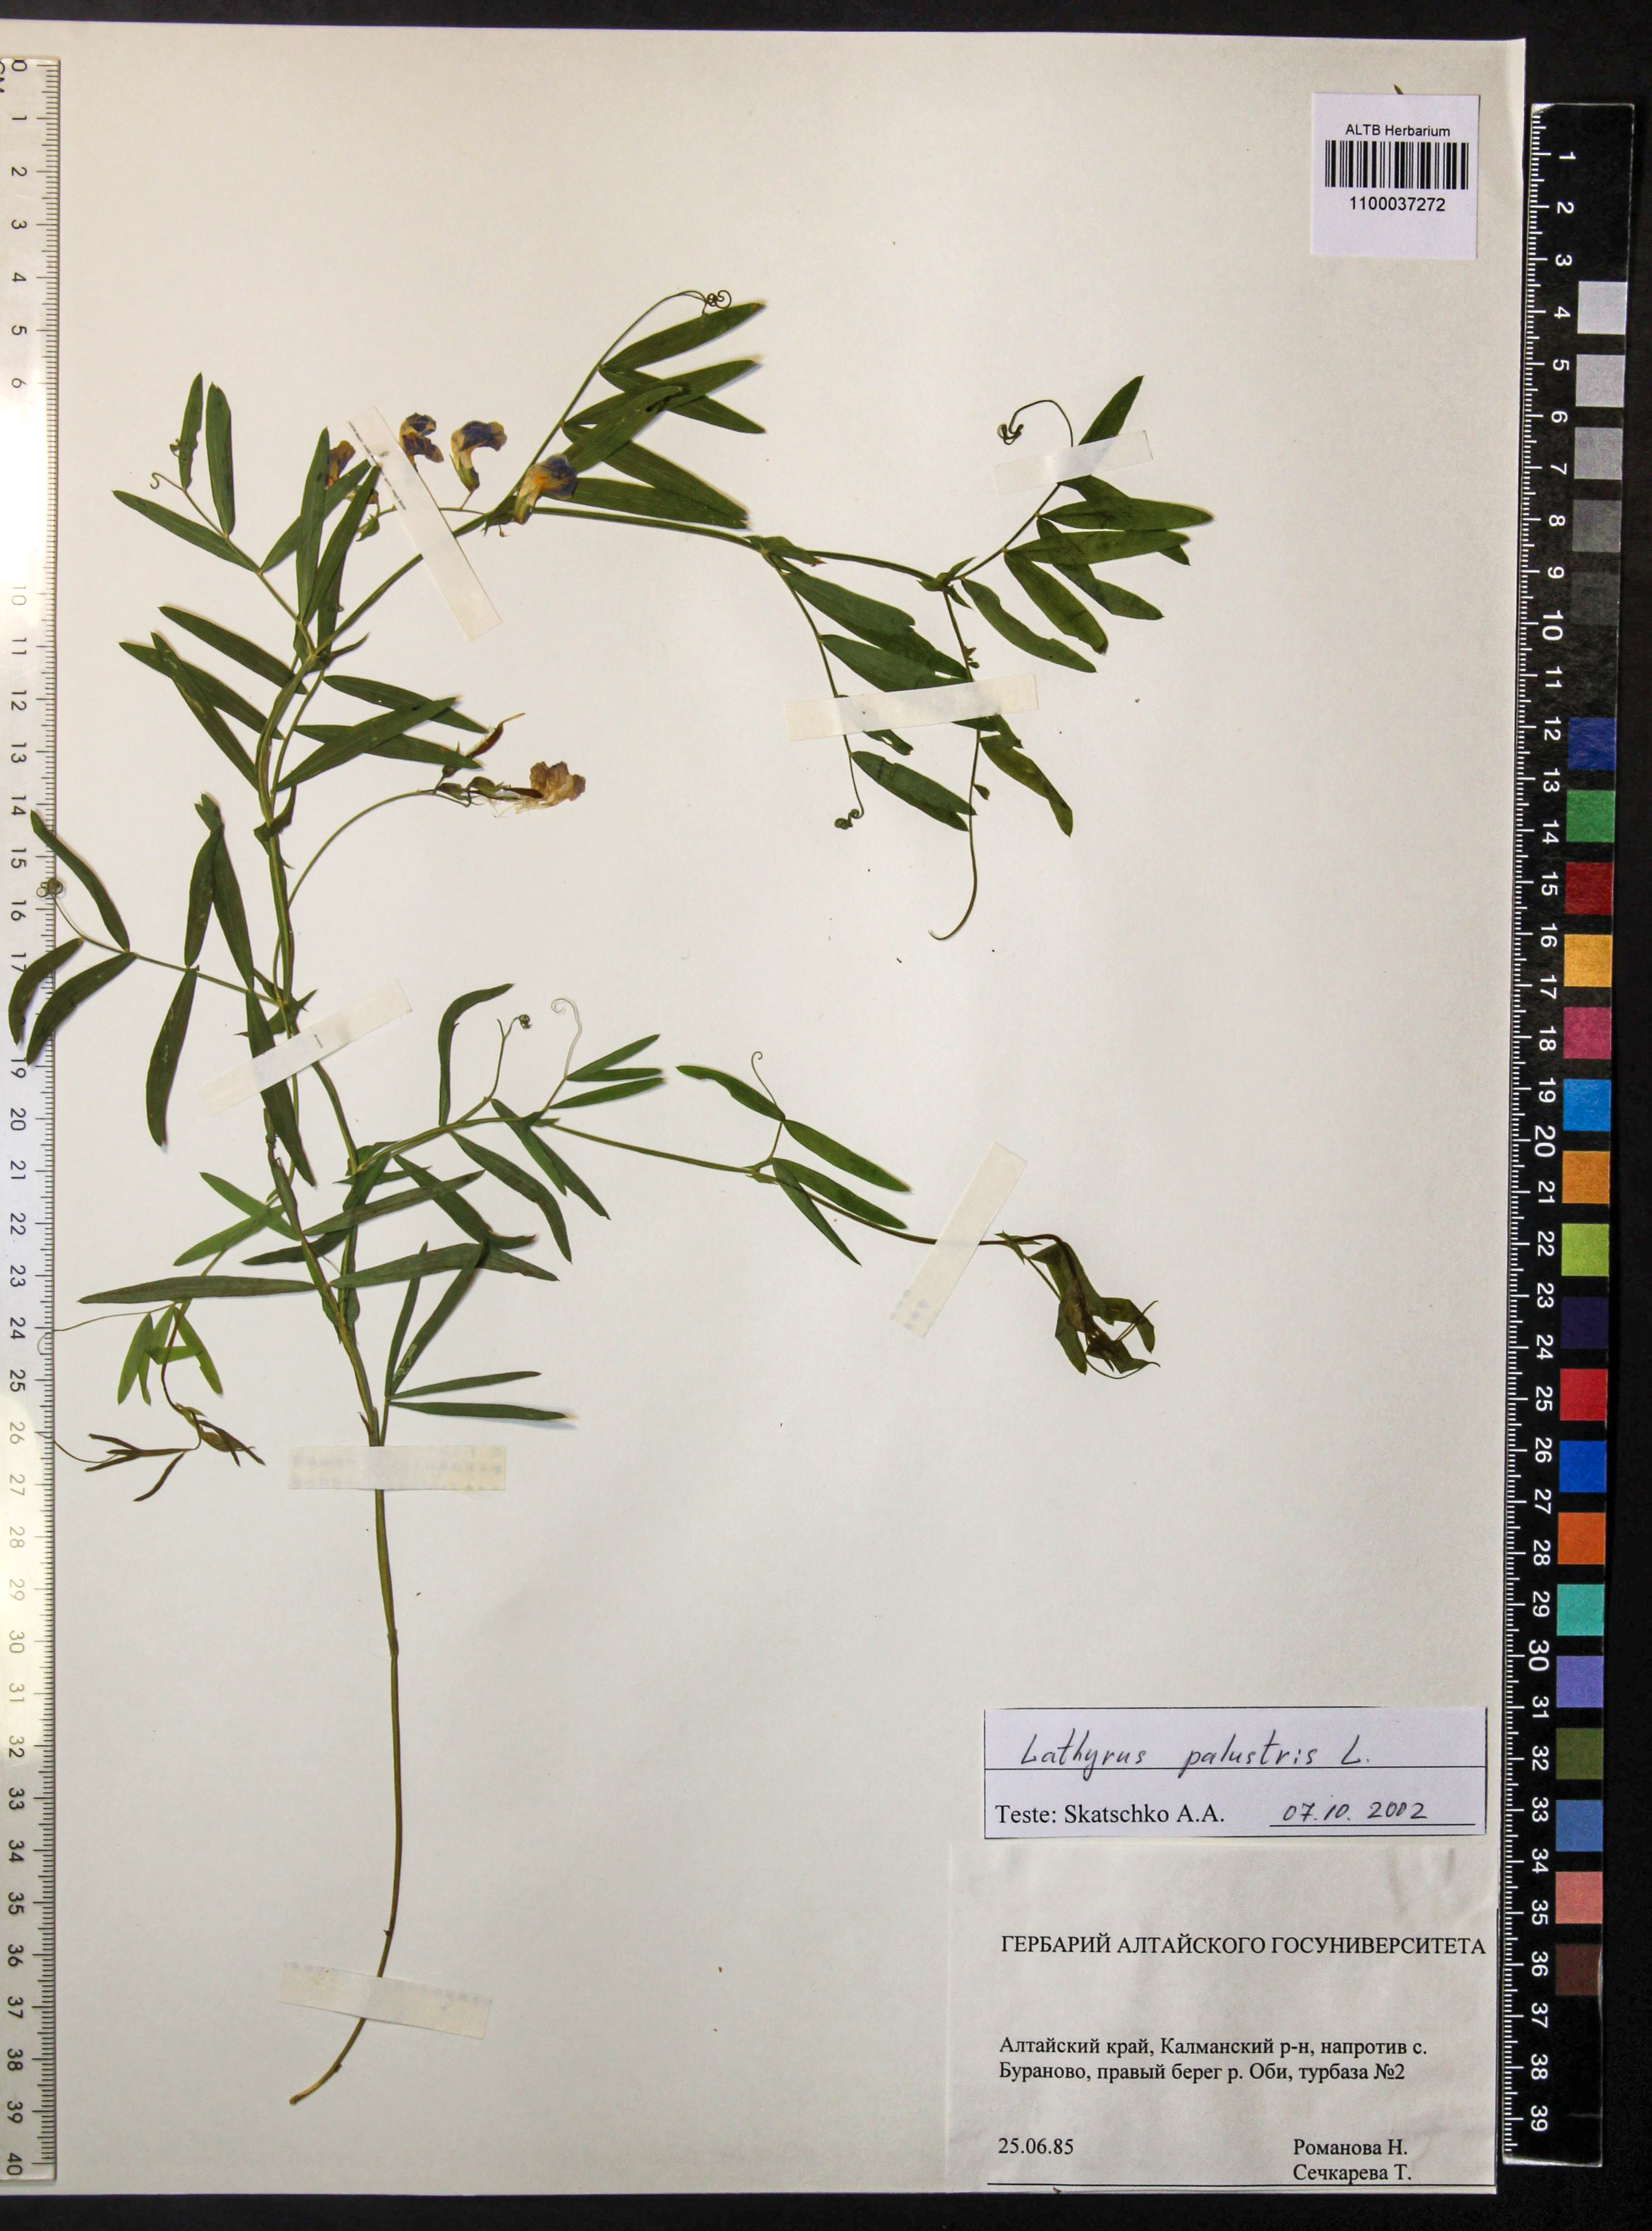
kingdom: Plantae
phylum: Tracheophyta
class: Magnoliopsida
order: Fabales
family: Fabaceae
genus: Lathyrus
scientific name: Lathyrus palustris
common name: Marsh pea
